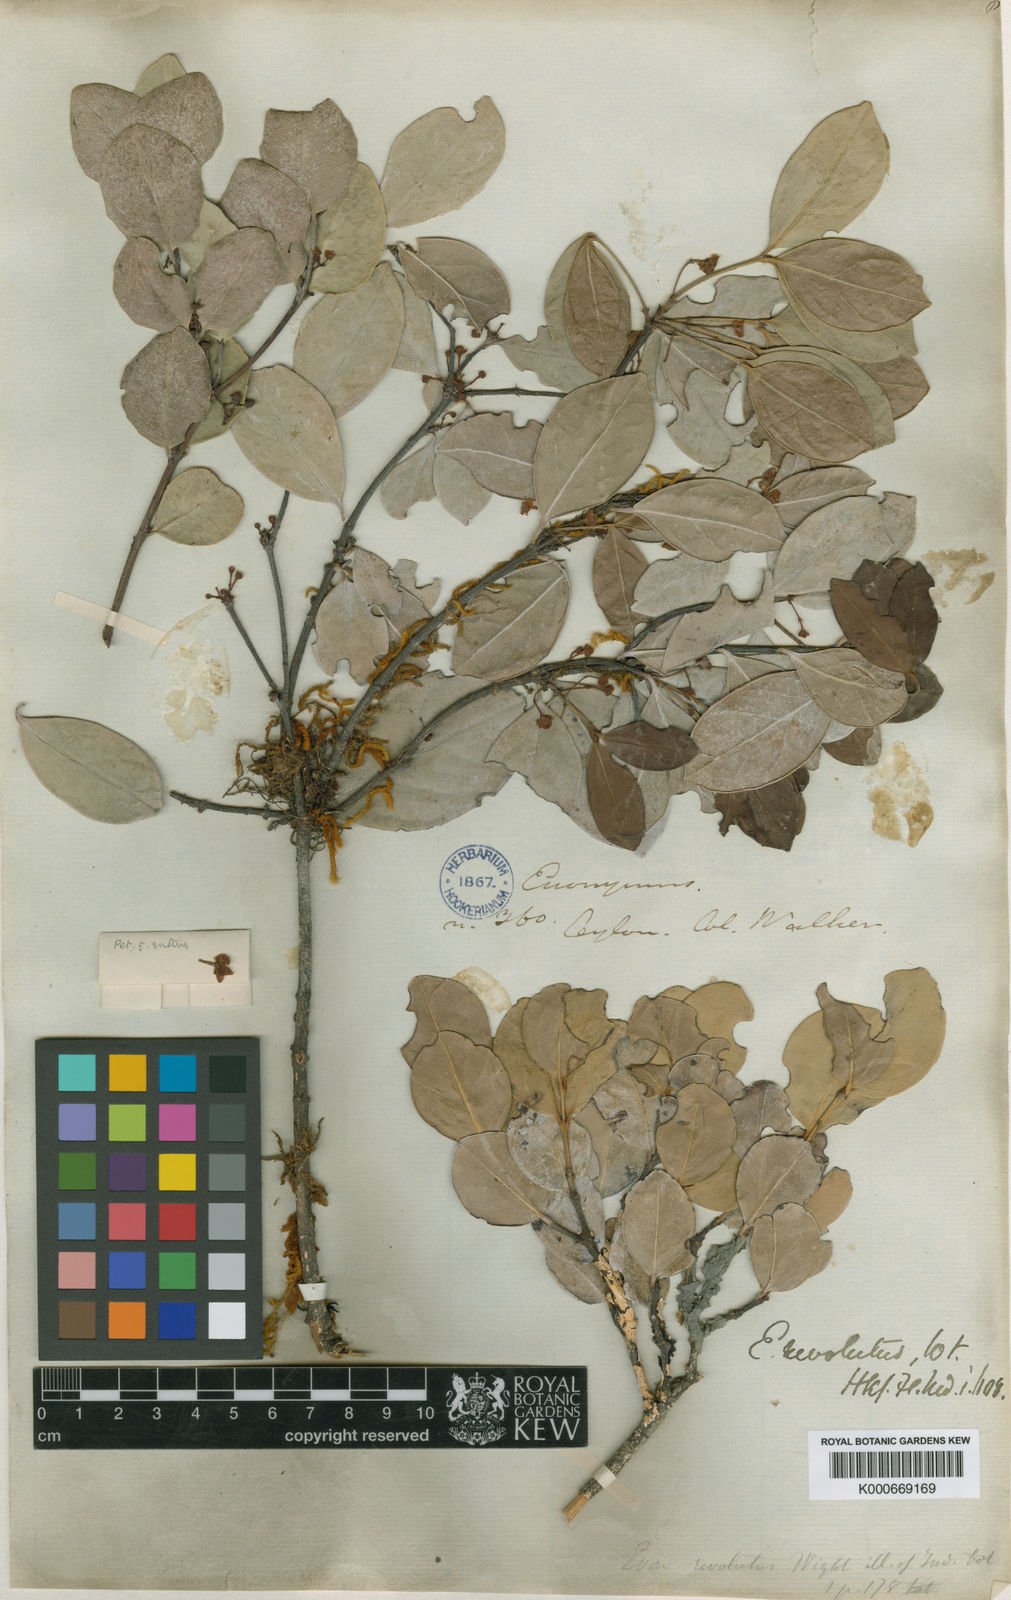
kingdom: Plantae
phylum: Tracheophyta
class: Magnoliopsida
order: Celastrales
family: Celastraceae
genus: Euonymus
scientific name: Euonymus revolutus
